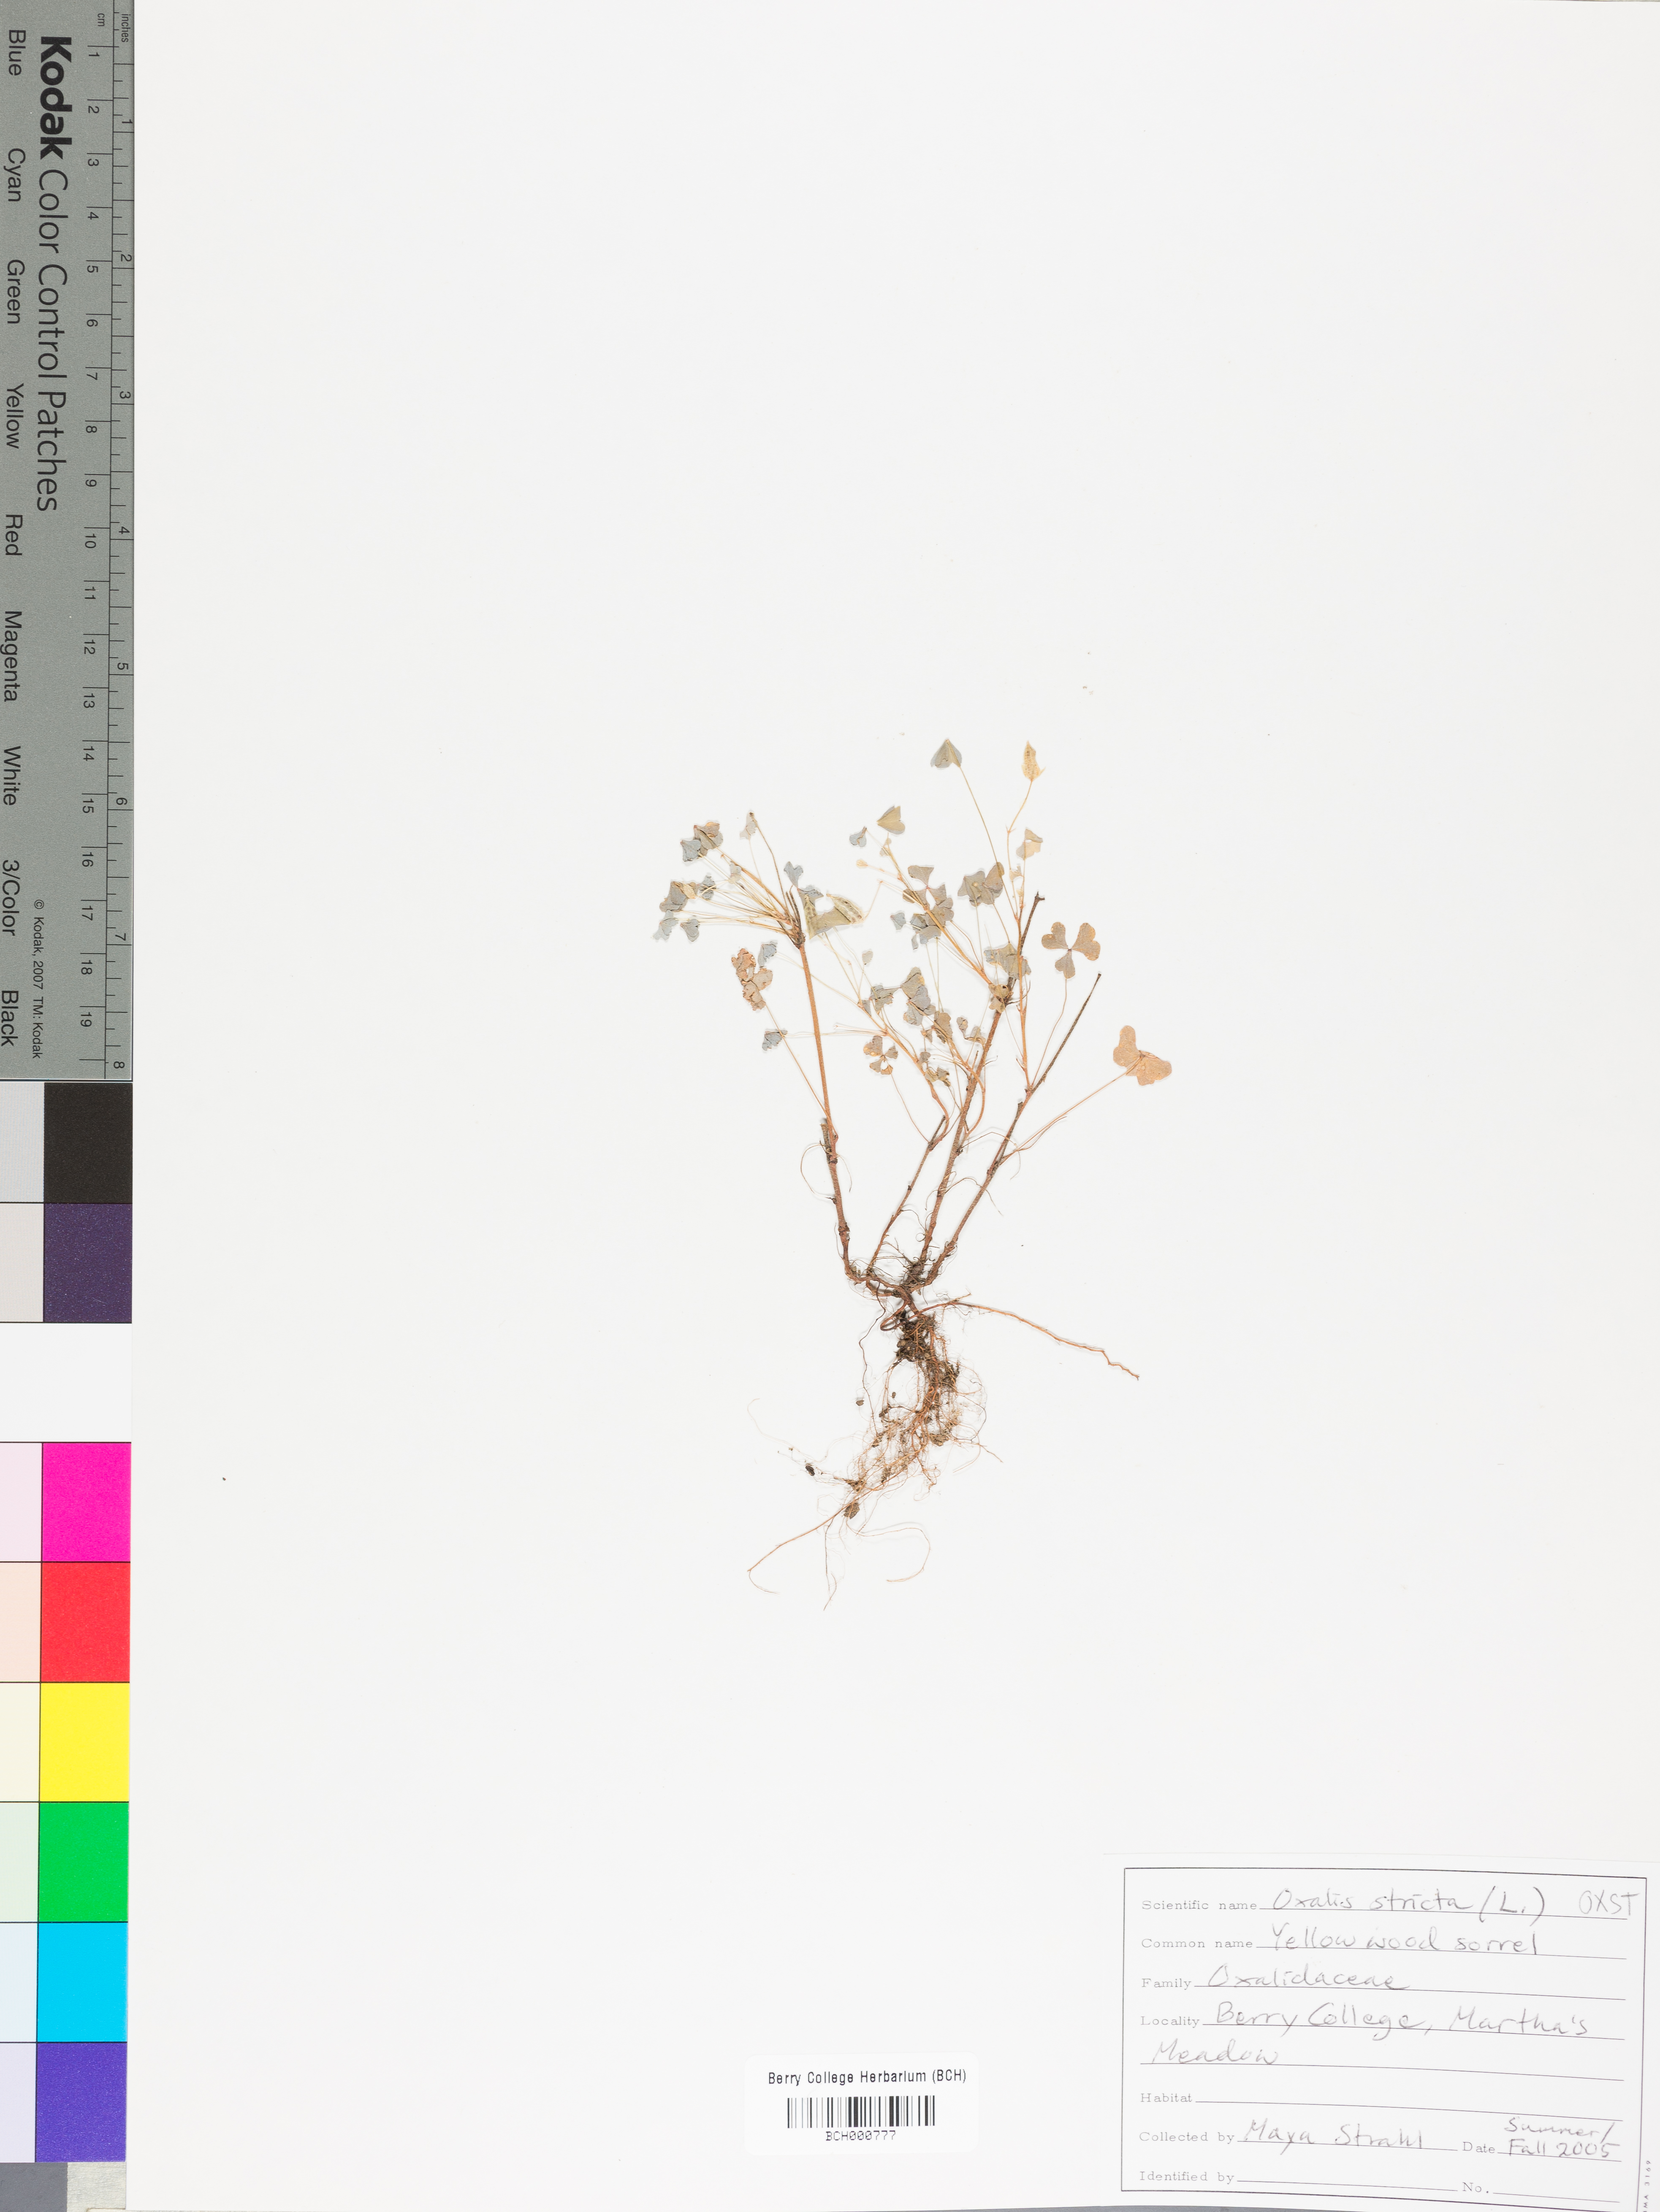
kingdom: Plantae
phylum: Tracheophyta
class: Magnoliopsida
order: Oxalidales
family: Oxalidaceae
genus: Oxalis
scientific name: Oxalis stricta
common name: Upright yellow-sorrel
